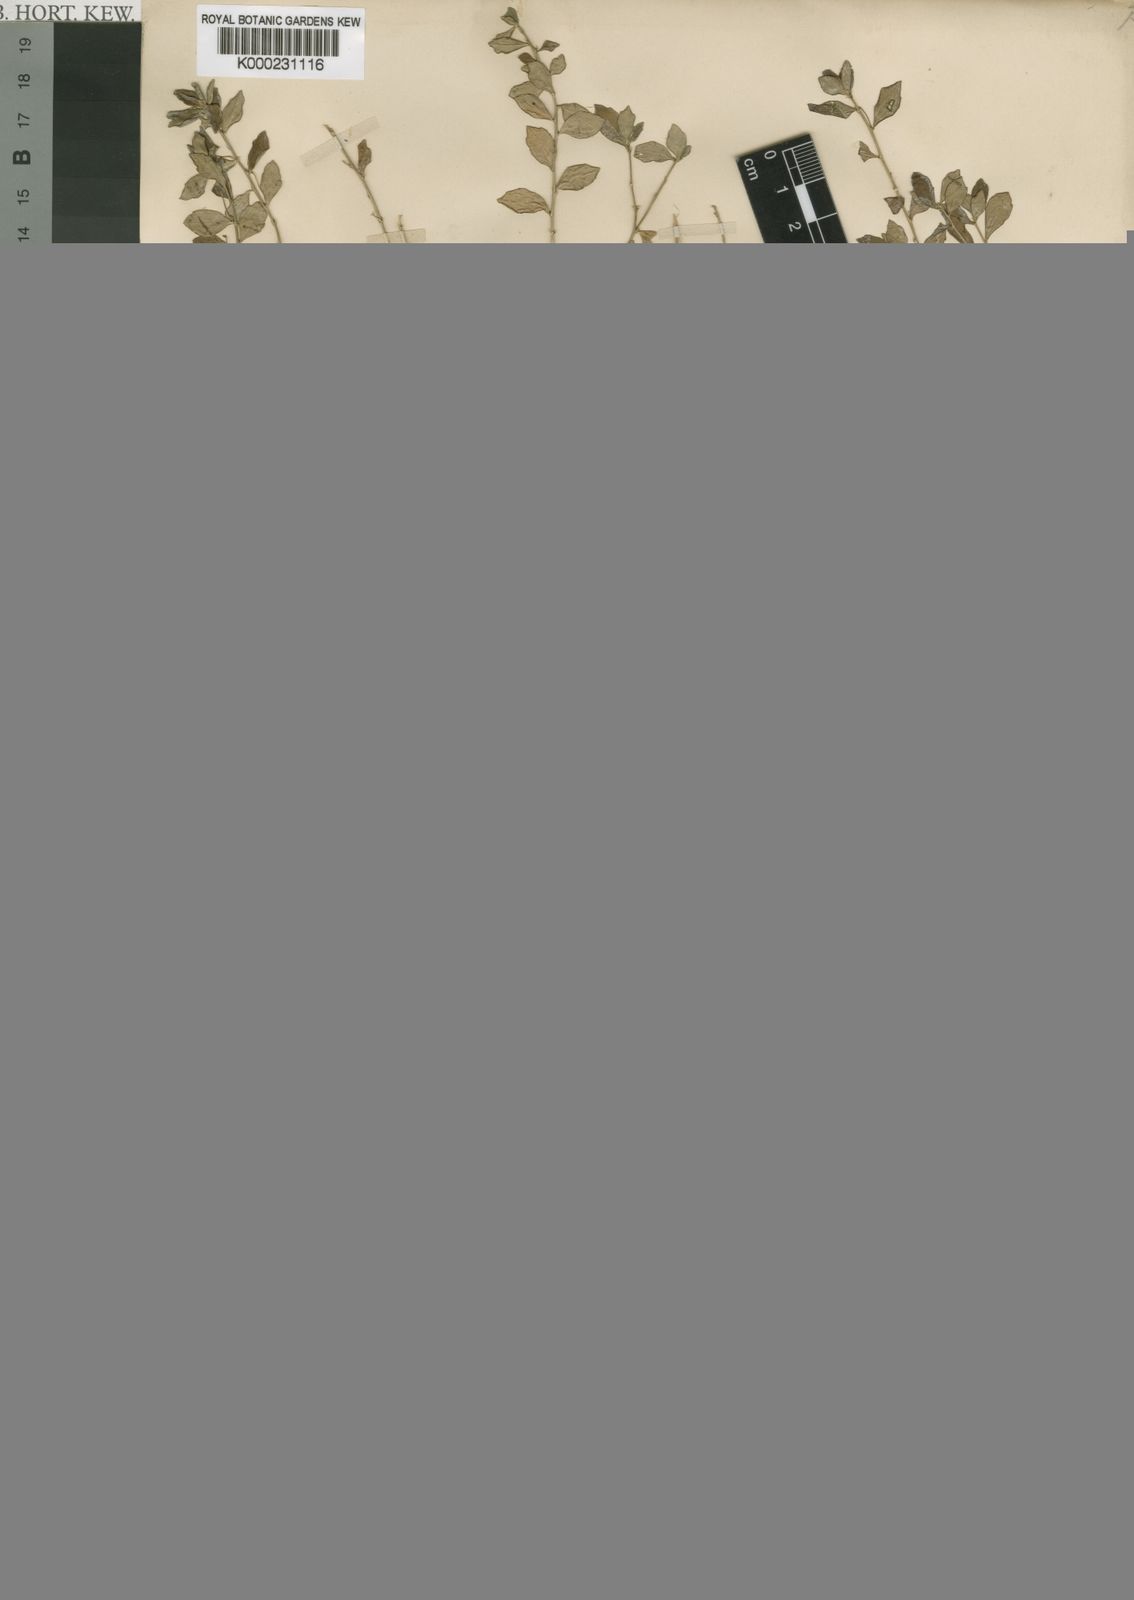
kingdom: Plantae
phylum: Tracheophyta
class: Magnoliopsida
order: Malpighiales
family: Violaceae
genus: Pigea
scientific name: Pigea enneasperma
